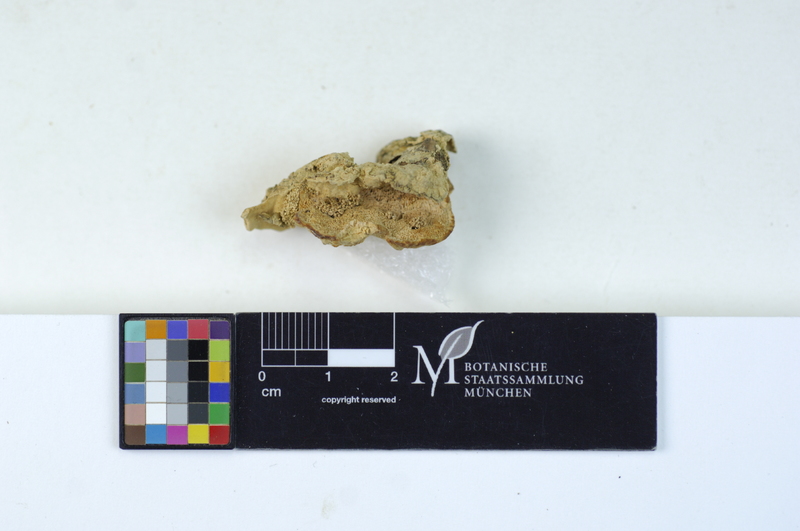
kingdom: Plantae
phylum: Tracheophyta
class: Pinopsida
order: Pinales
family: Pinaceae
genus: Picea
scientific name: Picea
